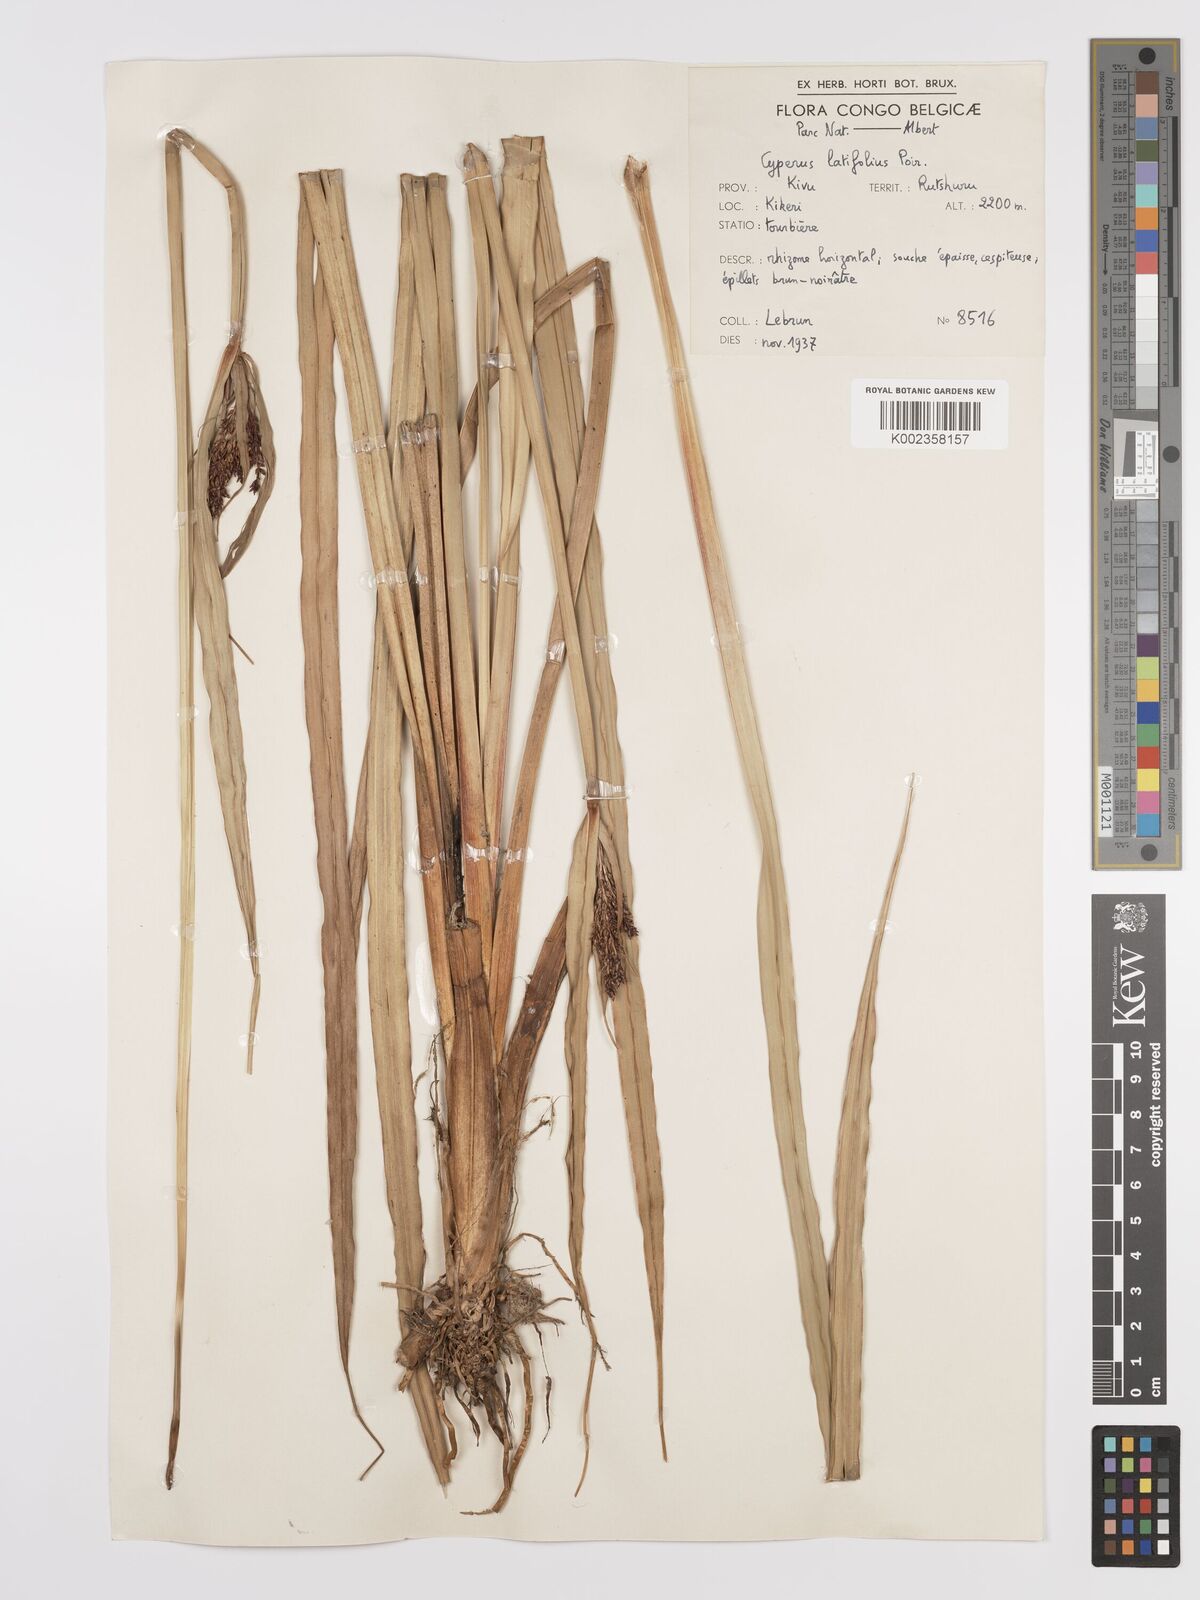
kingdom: Plantae
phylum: Tracheophyta
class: Liliopsida
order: Poales
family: Cyperaceae
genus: Cyperus
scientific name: Cyperus latifolius
